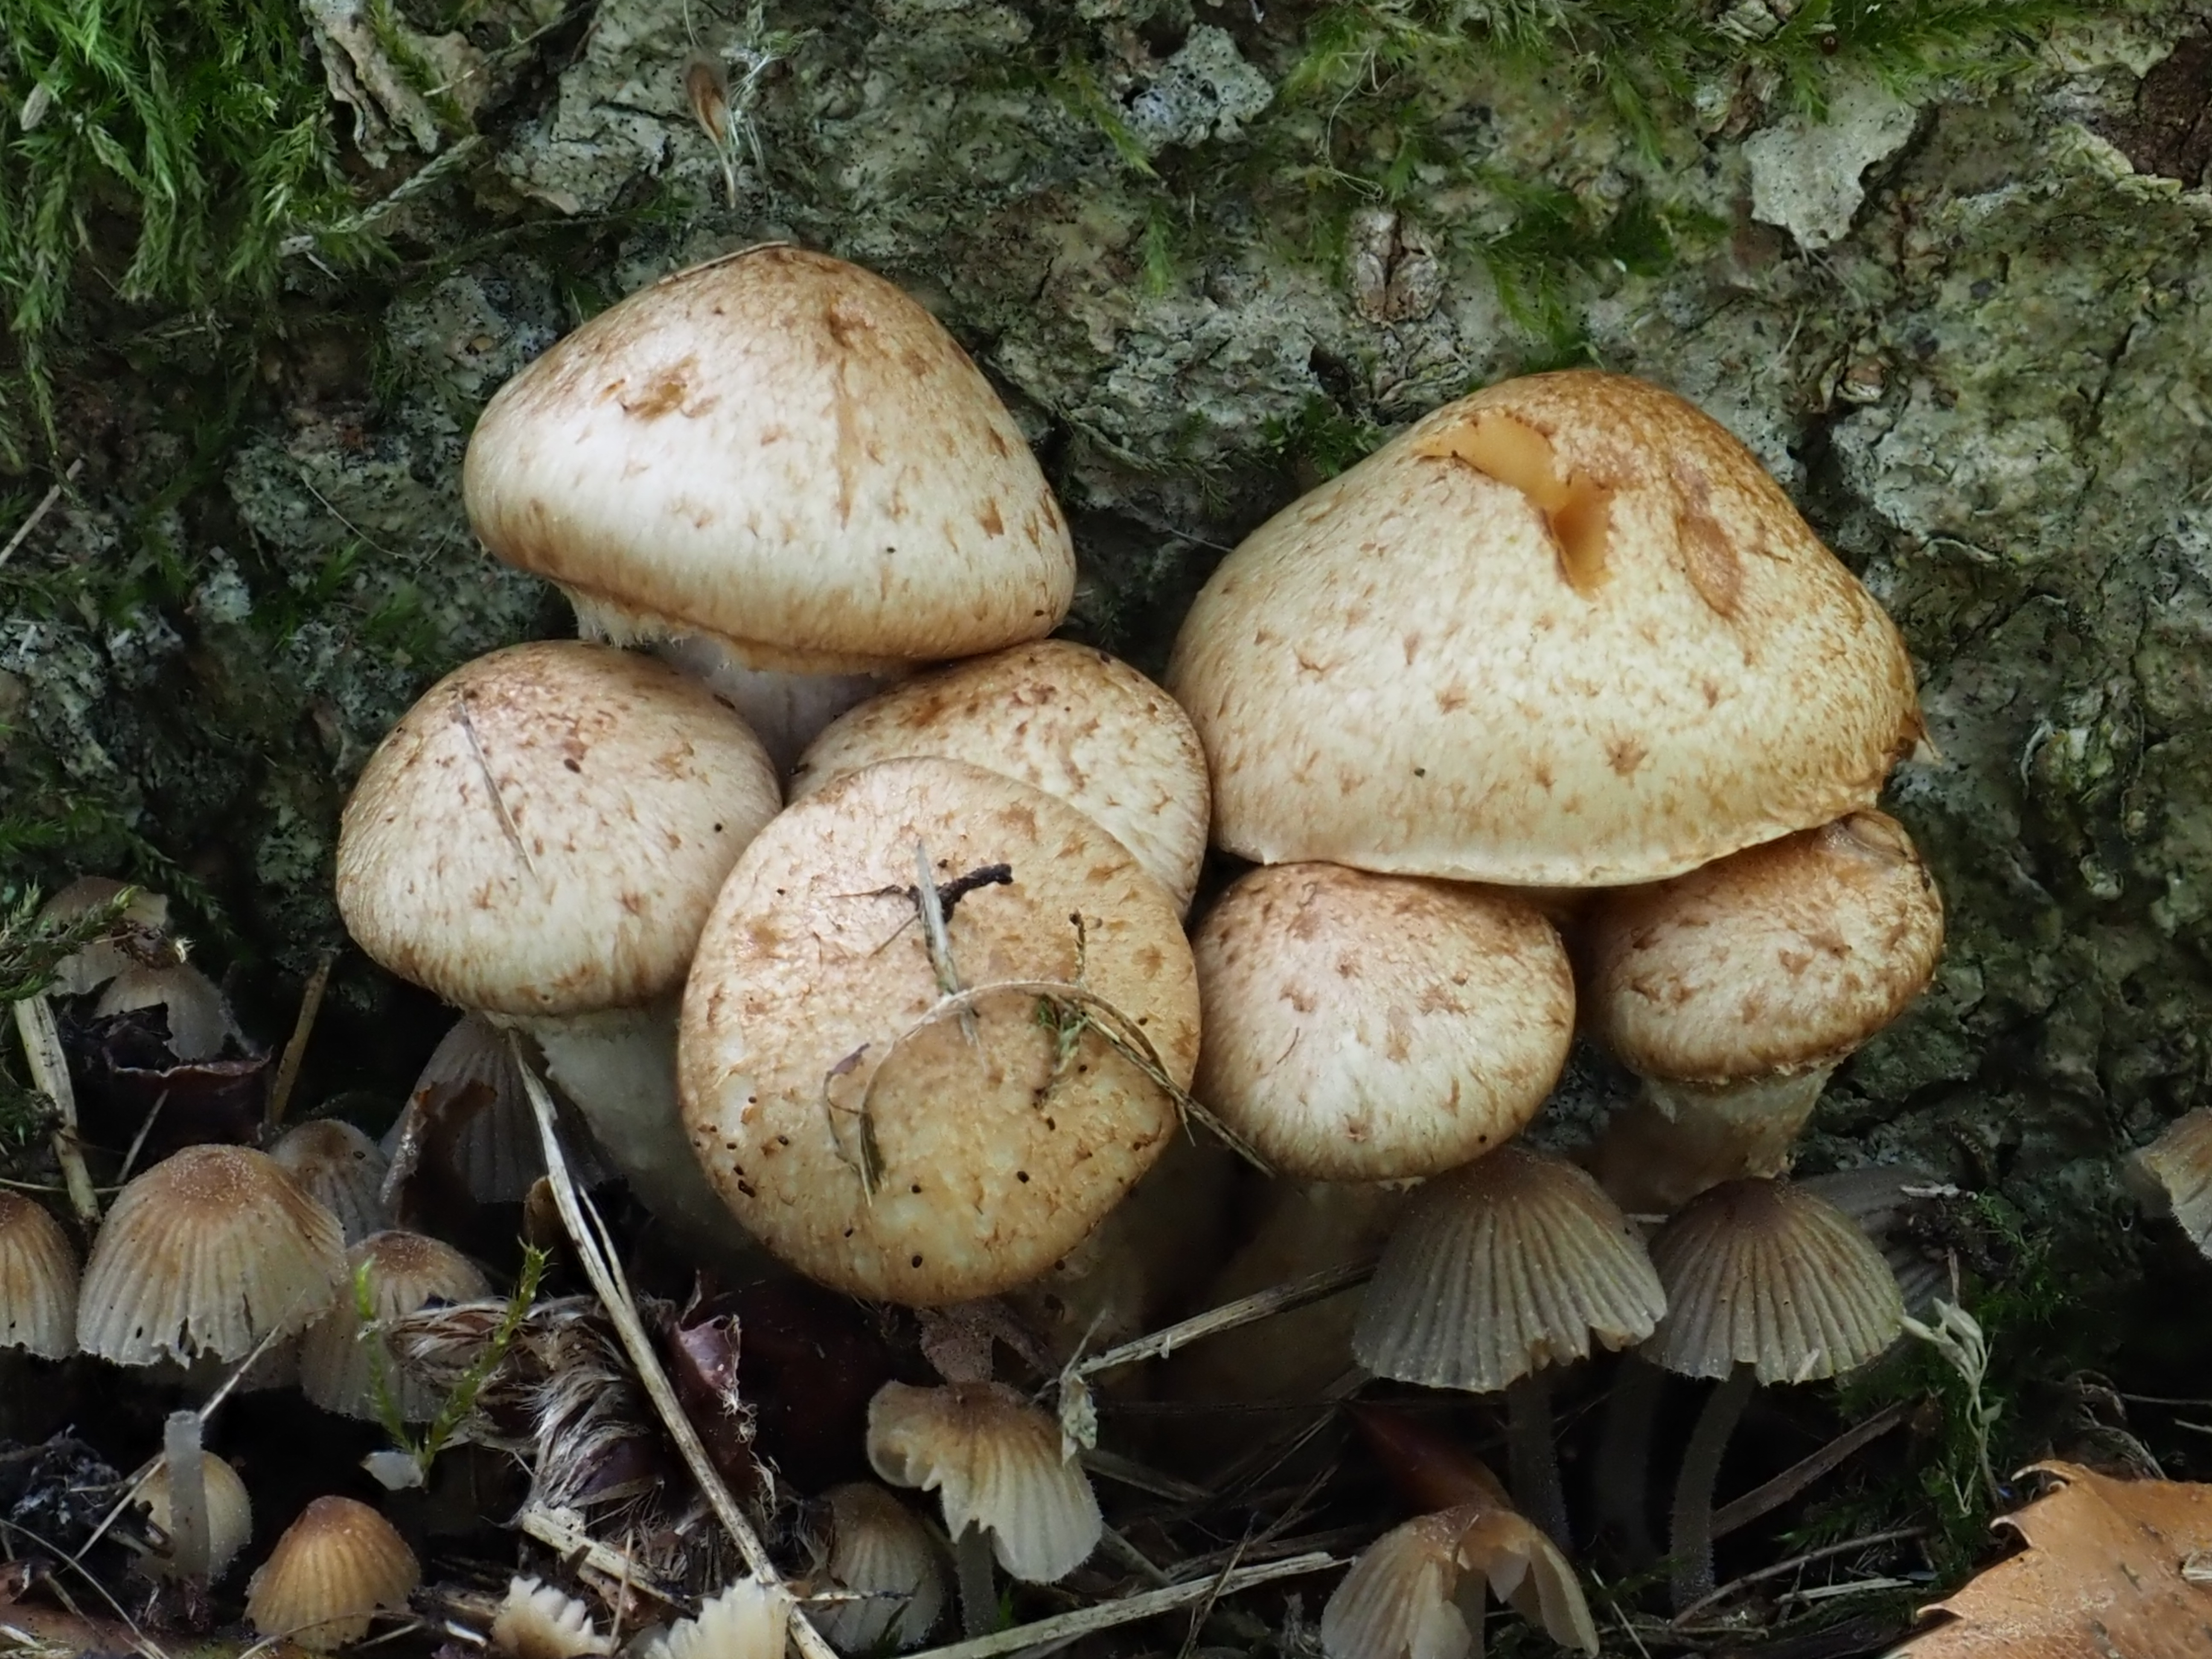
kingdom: Fungi
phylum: Basidiomycota
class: Agaricomycetes
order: Agaricales
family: Strophariaceae
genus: Pholiota
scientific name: Pholiota gummosa
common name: Sticky scalycap
